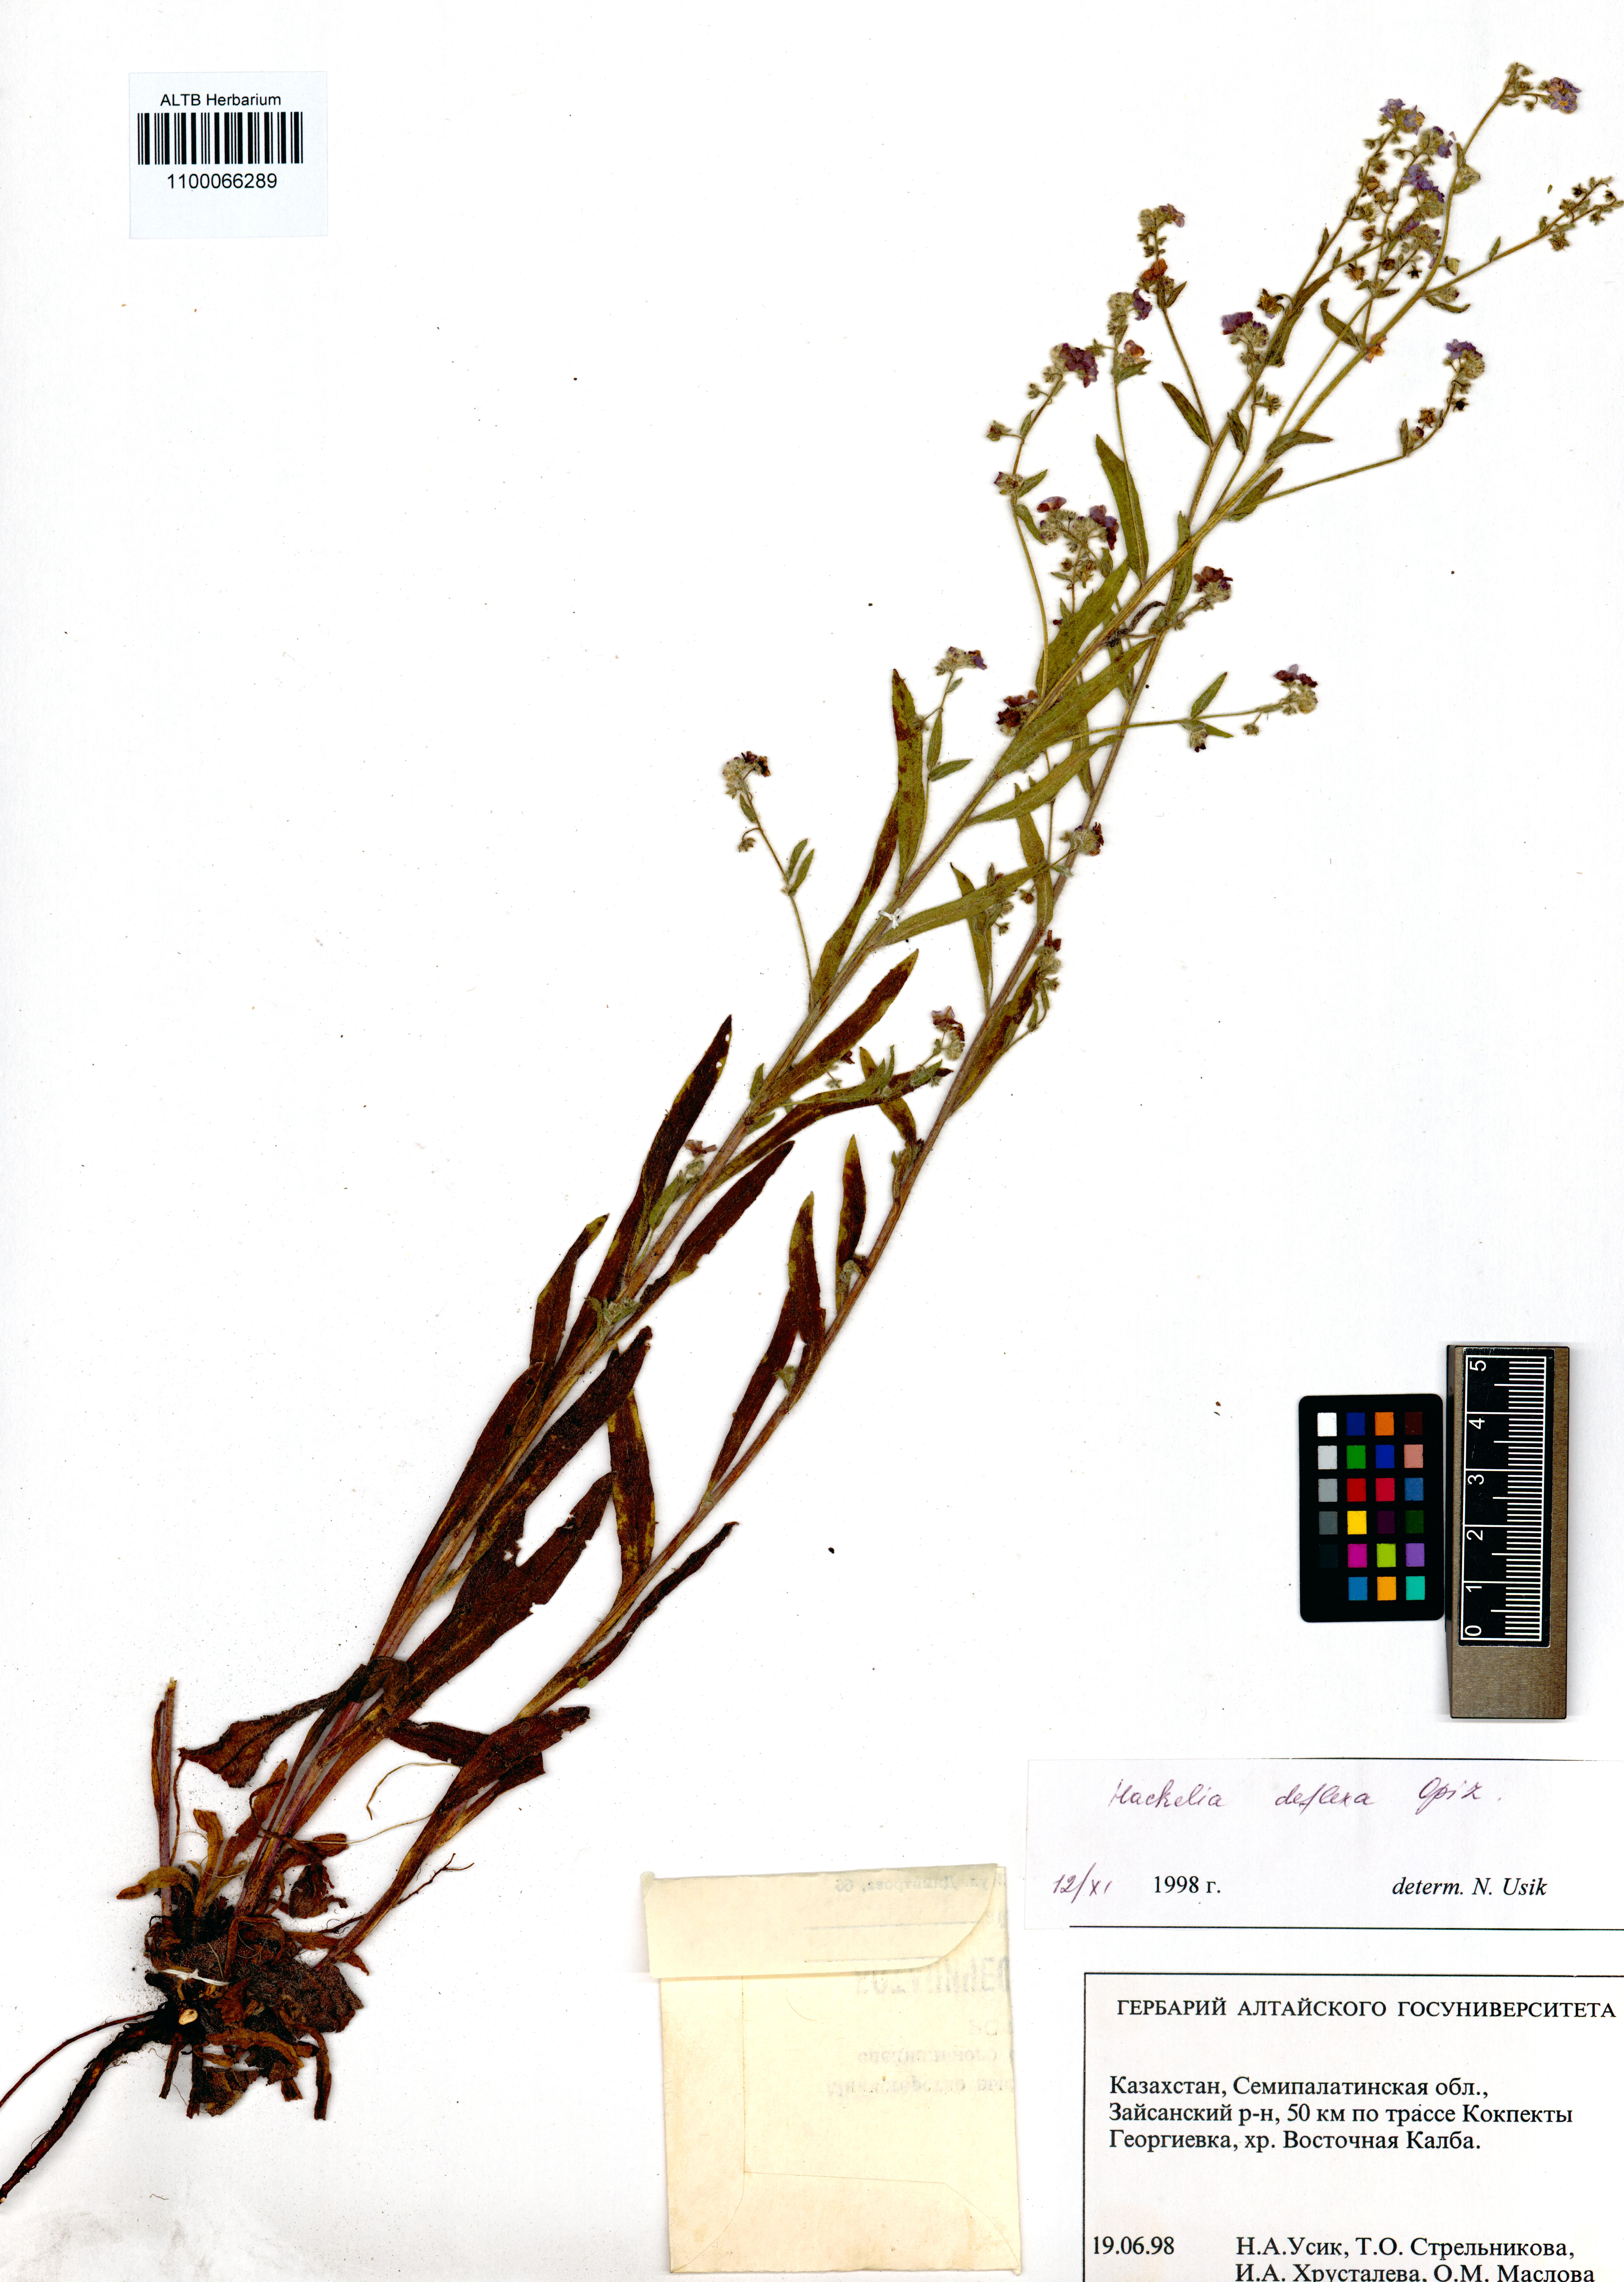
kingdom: Plantae
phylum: Tracheophyta
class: Magnoliopsida
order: Boraginales
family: Boraginaceae
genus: Hackelia
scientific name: Hackelia deflexa
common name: Nodding stickseed
